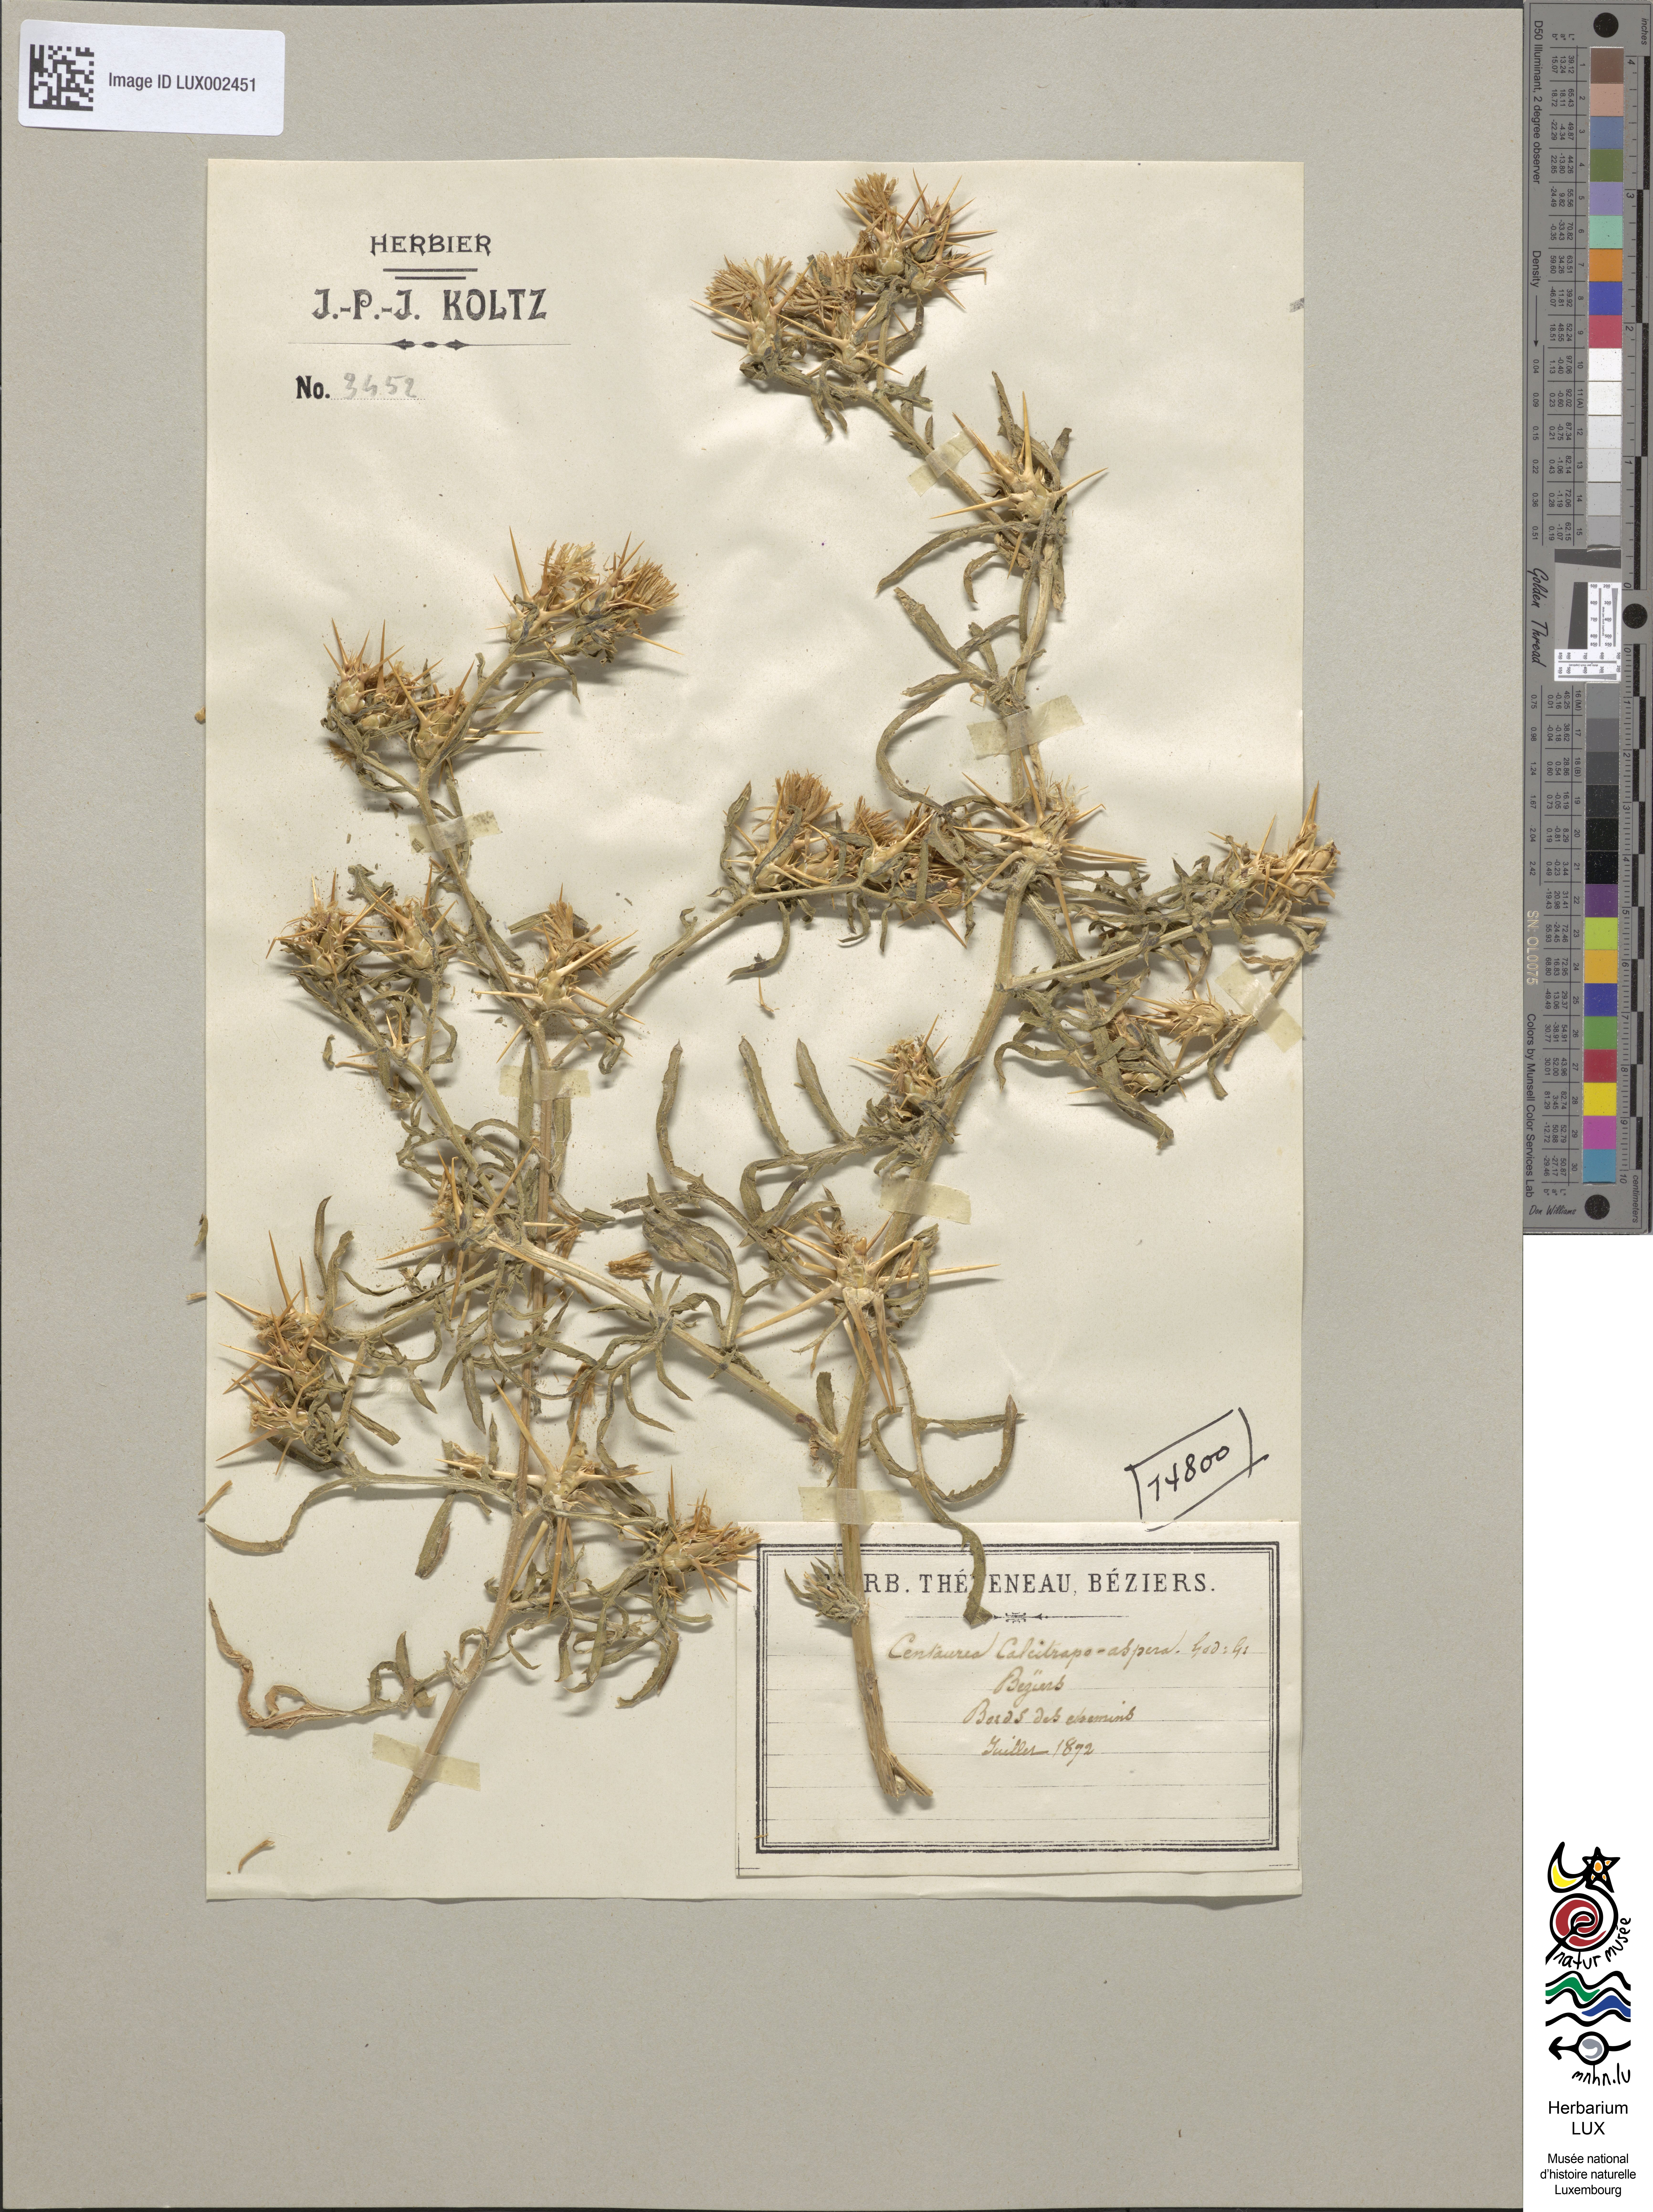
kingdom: Plantae
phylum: Tracheophyta
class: Magnoliopsida
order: Asterales
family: Asteraceae
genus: Centaurea
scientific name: Centaurea arrectispina
